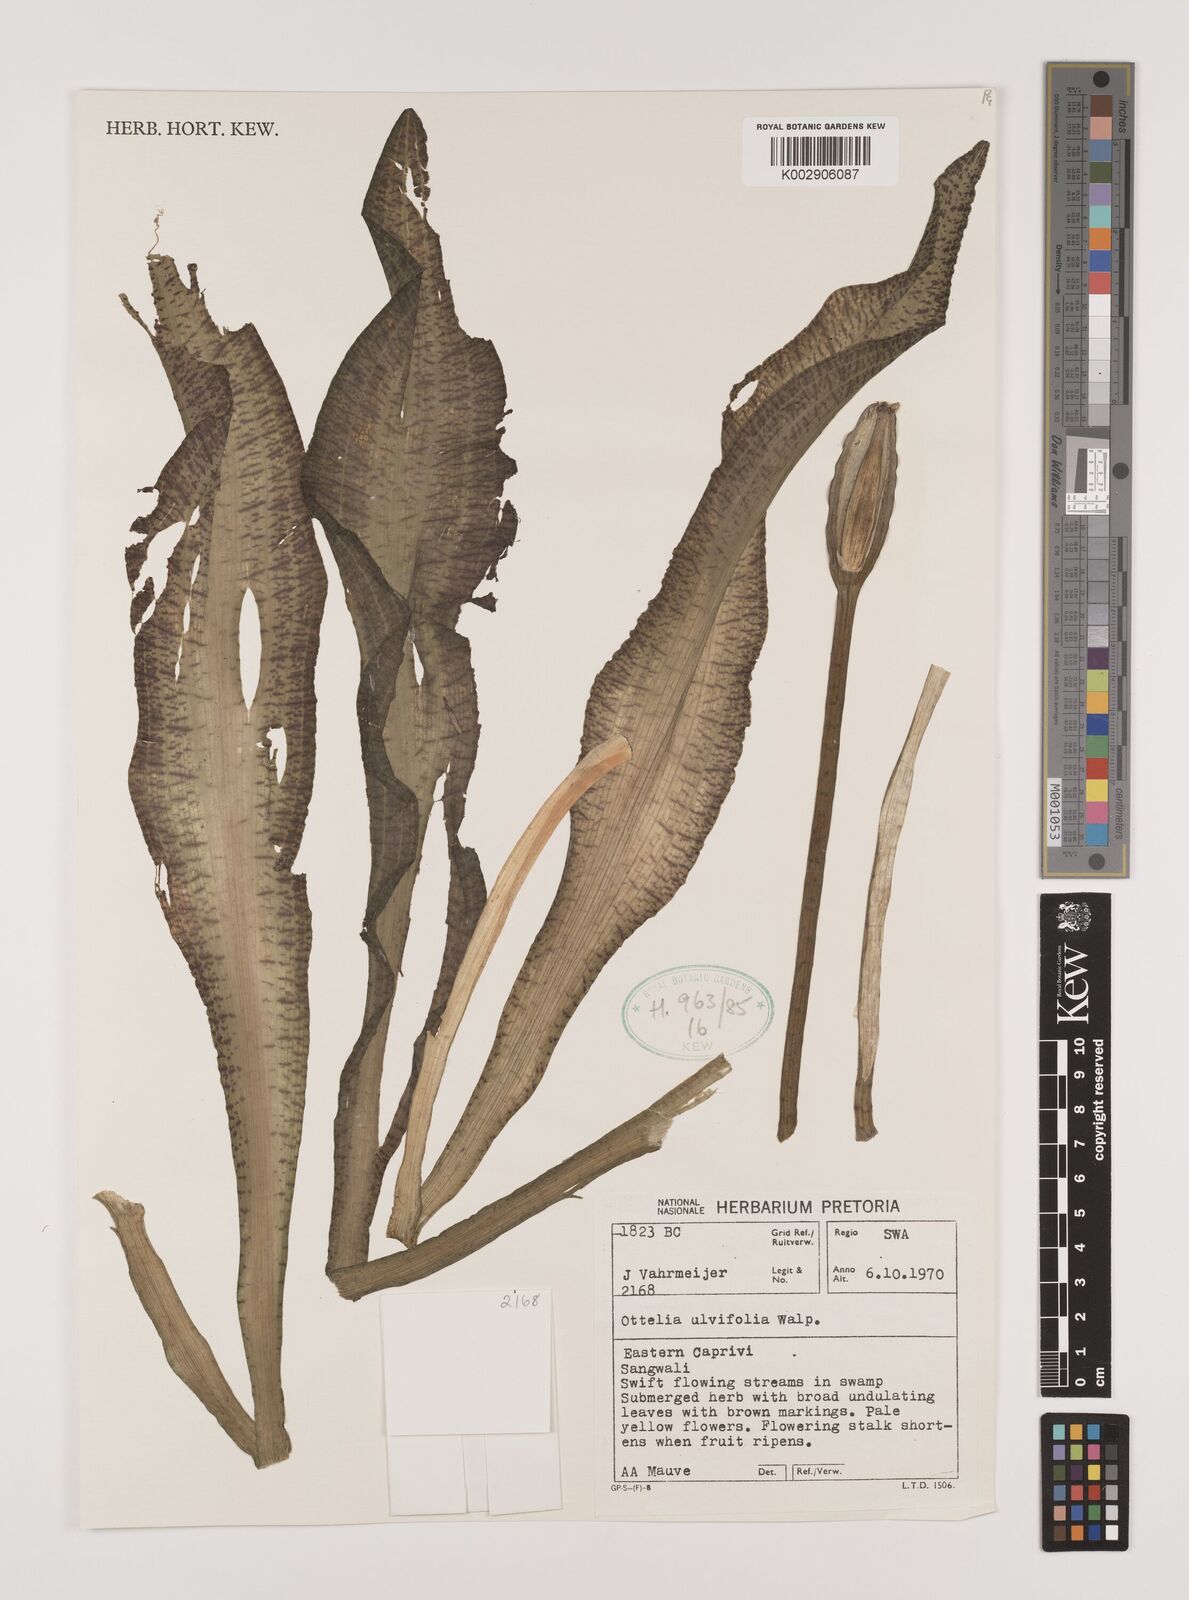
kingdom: Plantae
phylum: Tracheophyta
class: Liliopsida
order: Alismatales
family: Hydrocharitaceae
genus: Ottelia
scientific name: Ottelia
